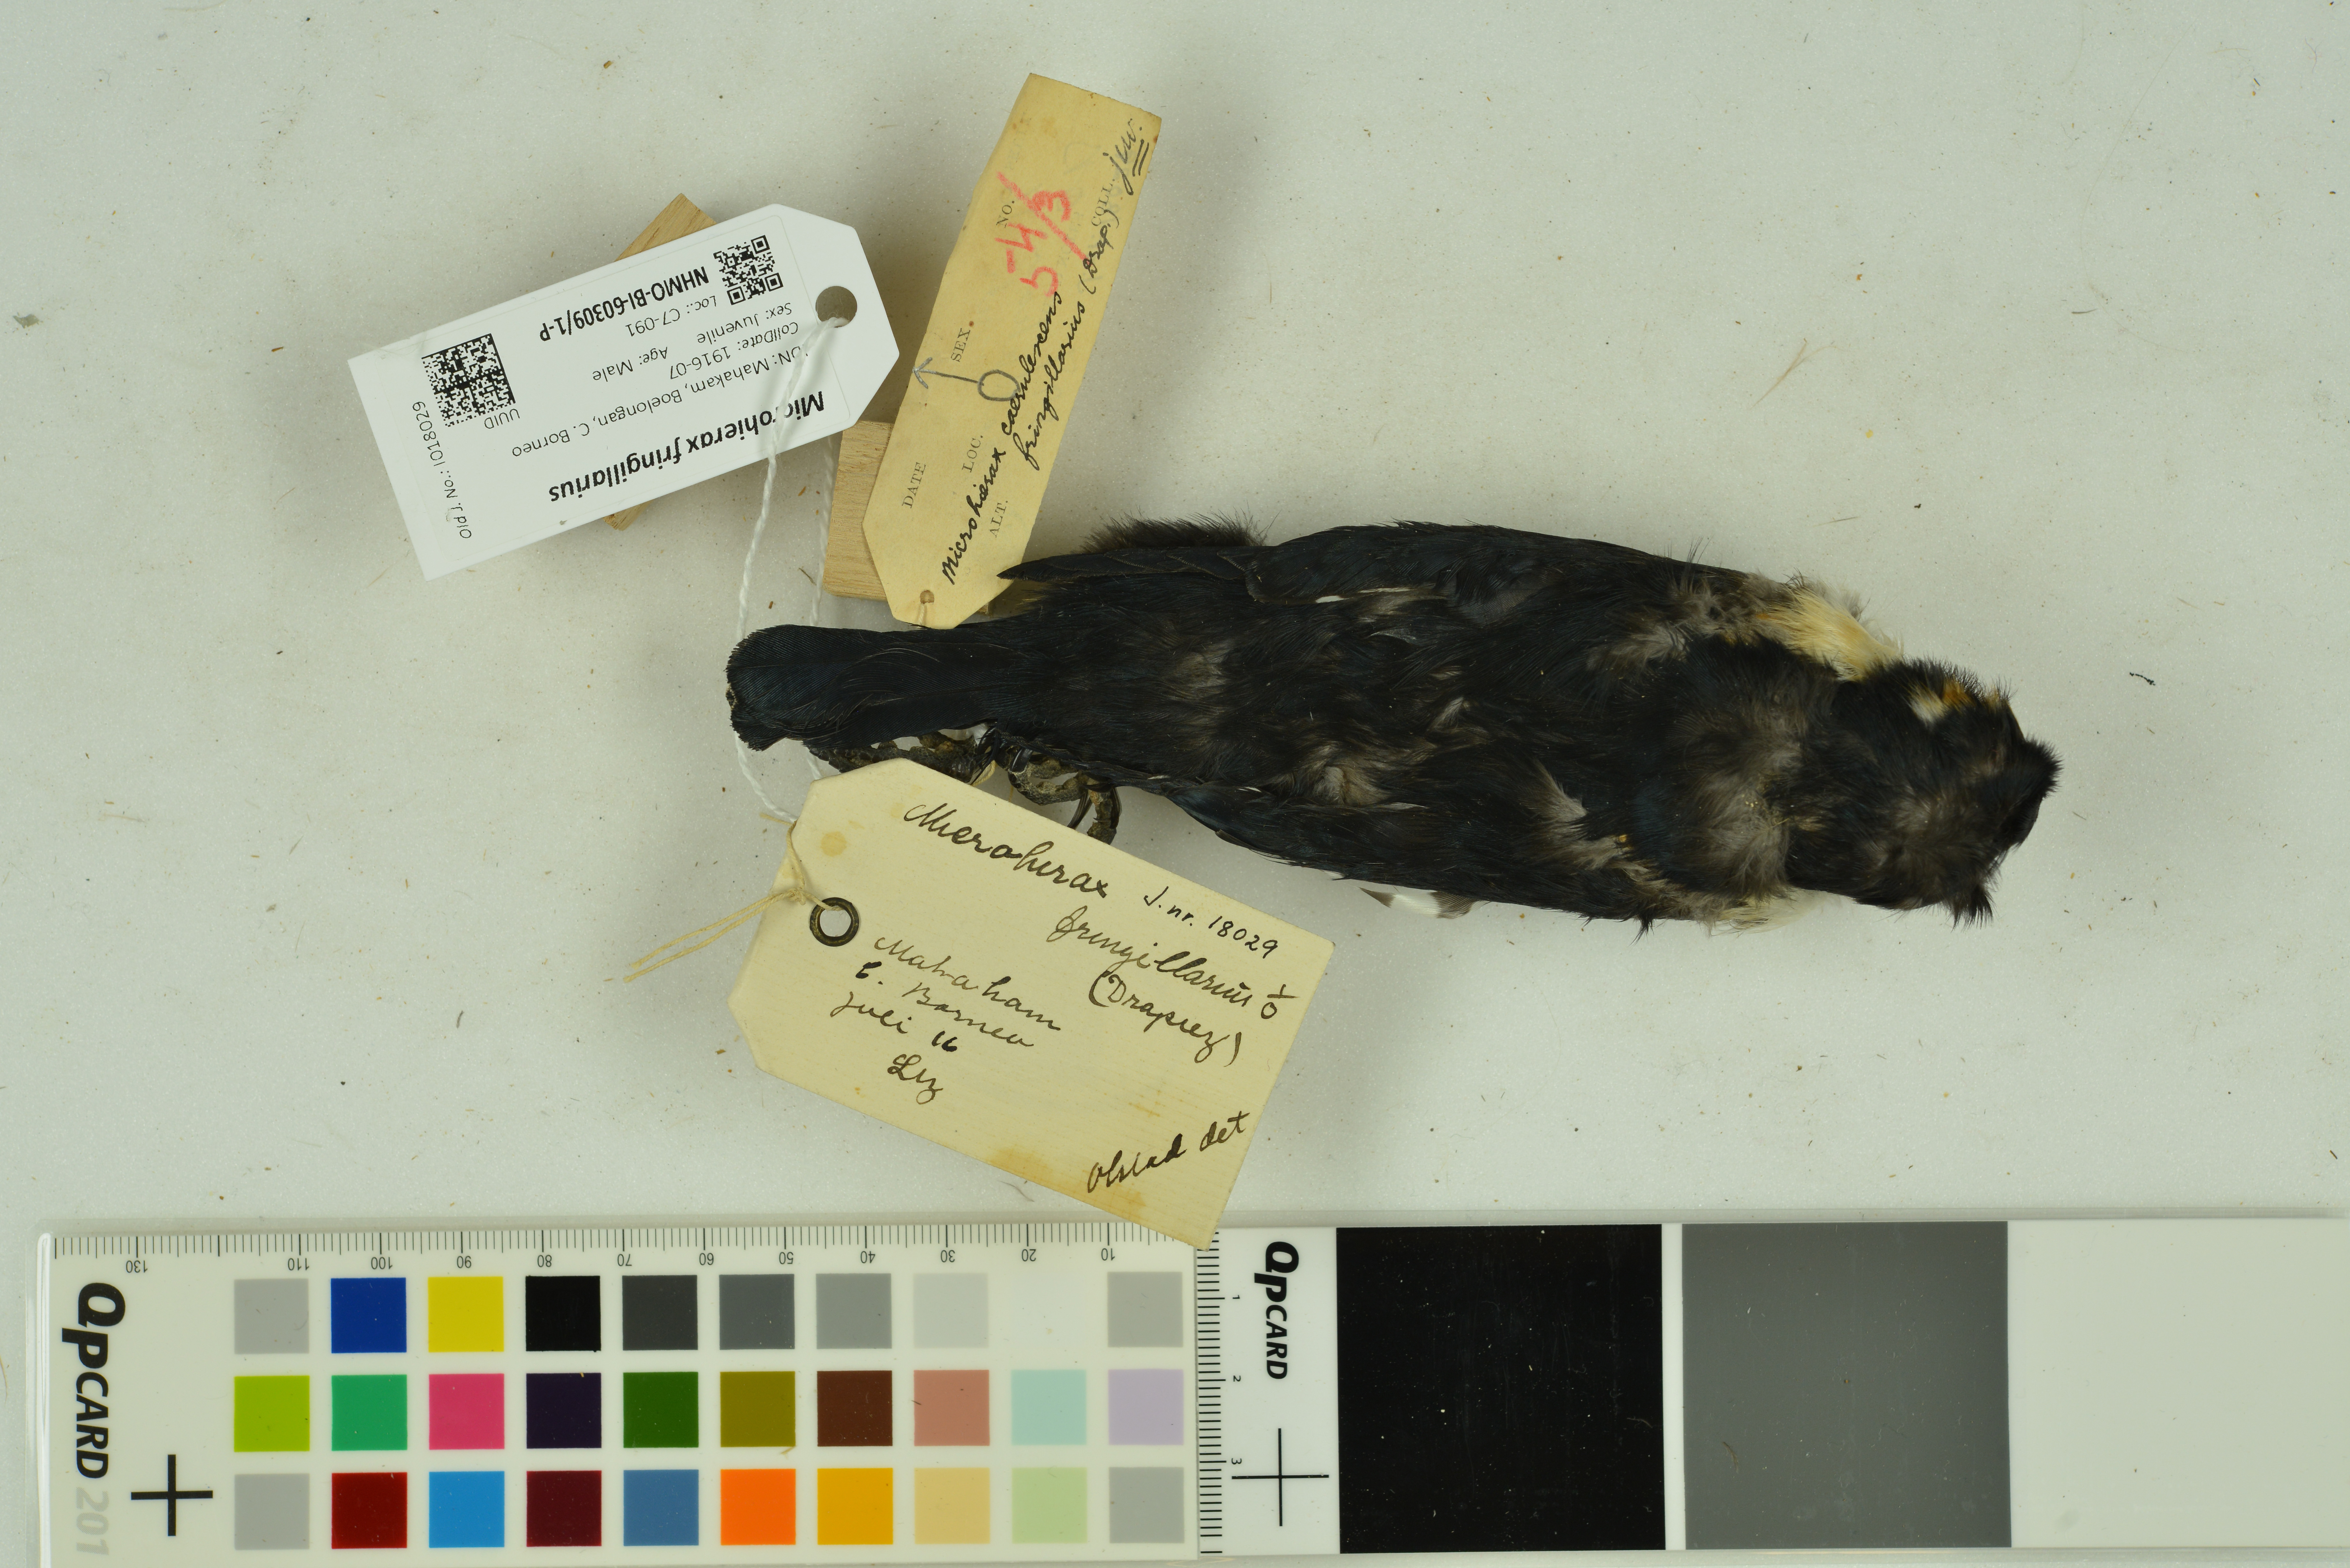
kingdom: Animalia
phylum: Chordata
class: Aves
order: Falconiformes
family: Falconidae
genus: Microhierax
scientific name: Microhierax fringillarius
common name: Black-thighed falconet
